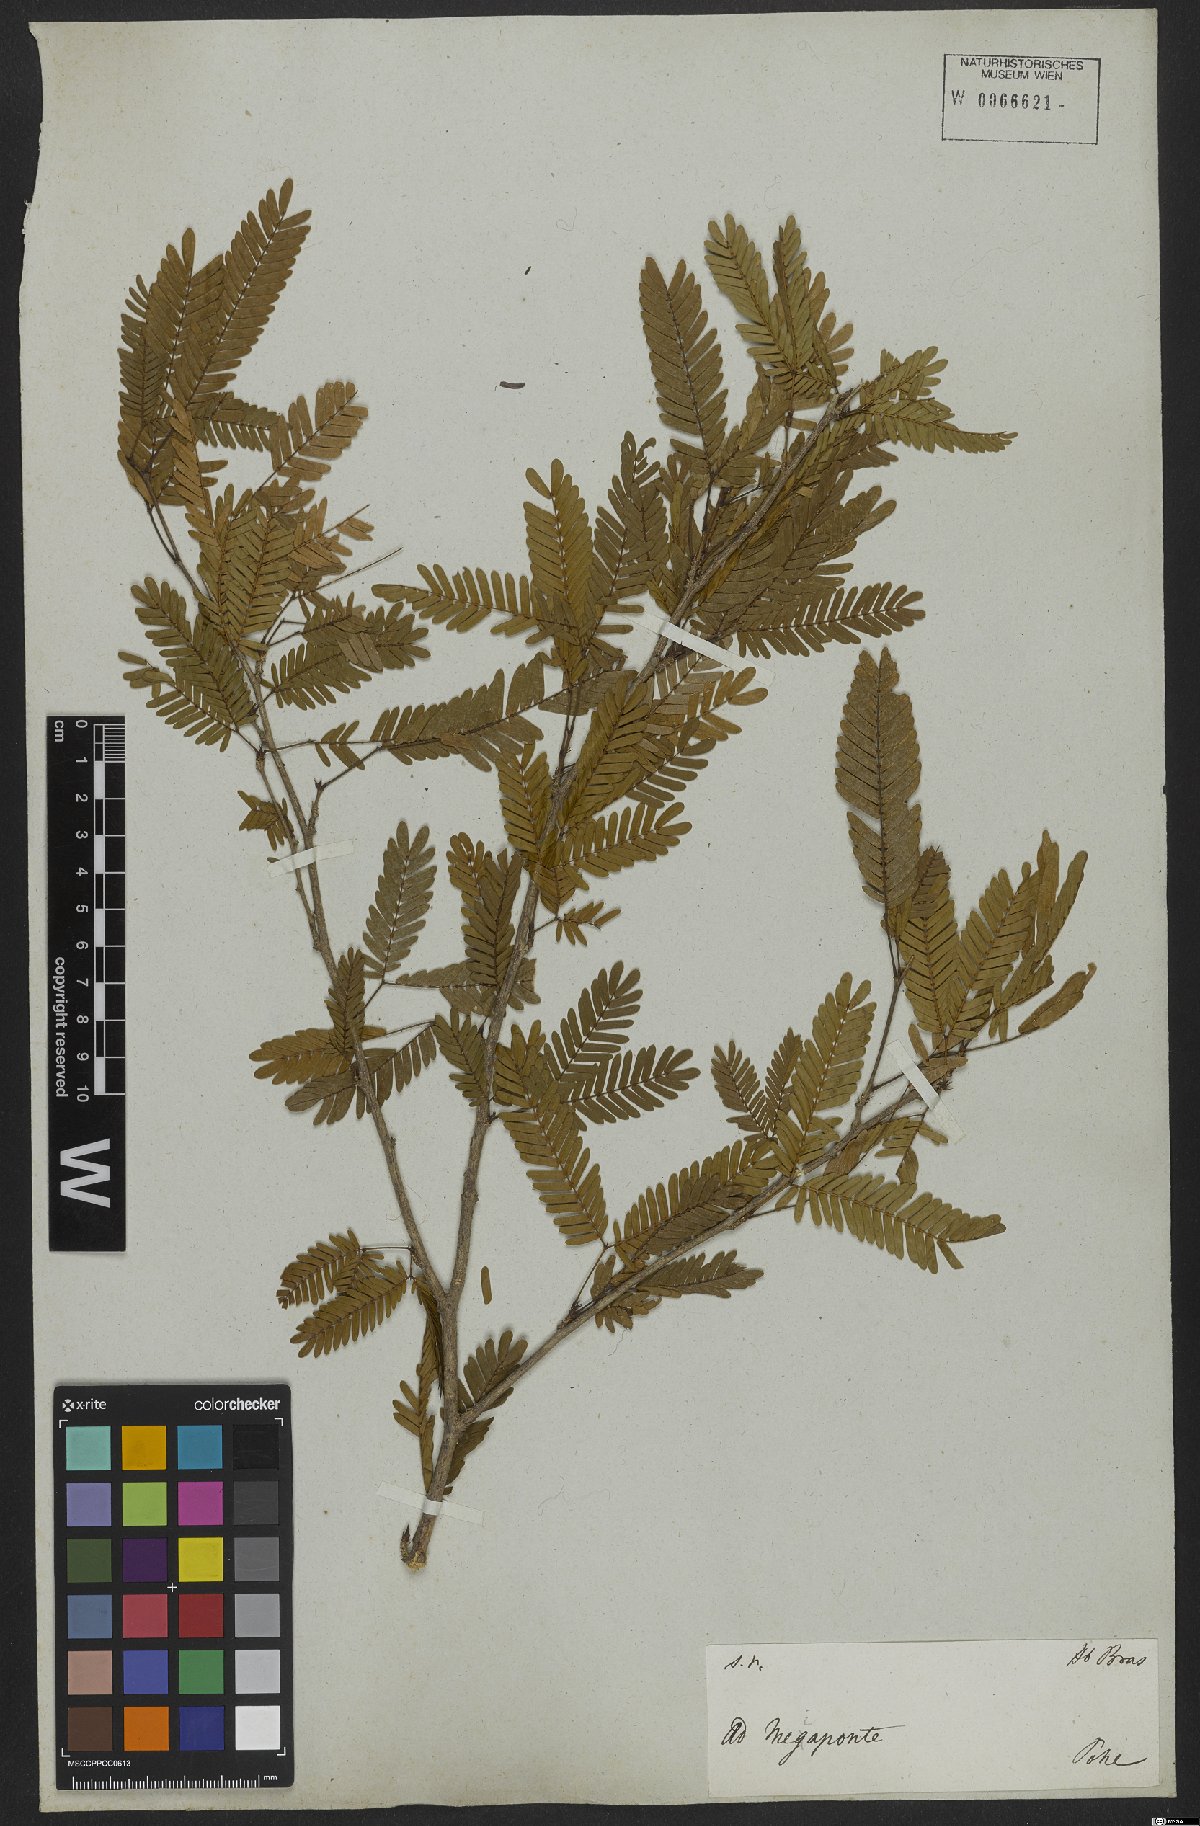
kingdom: Plantae
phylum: Tracheophyta
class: Magnoliopsida
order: Fabales
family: Fabaceae
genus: Cylicodiscus
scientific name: Cylicodiscus
